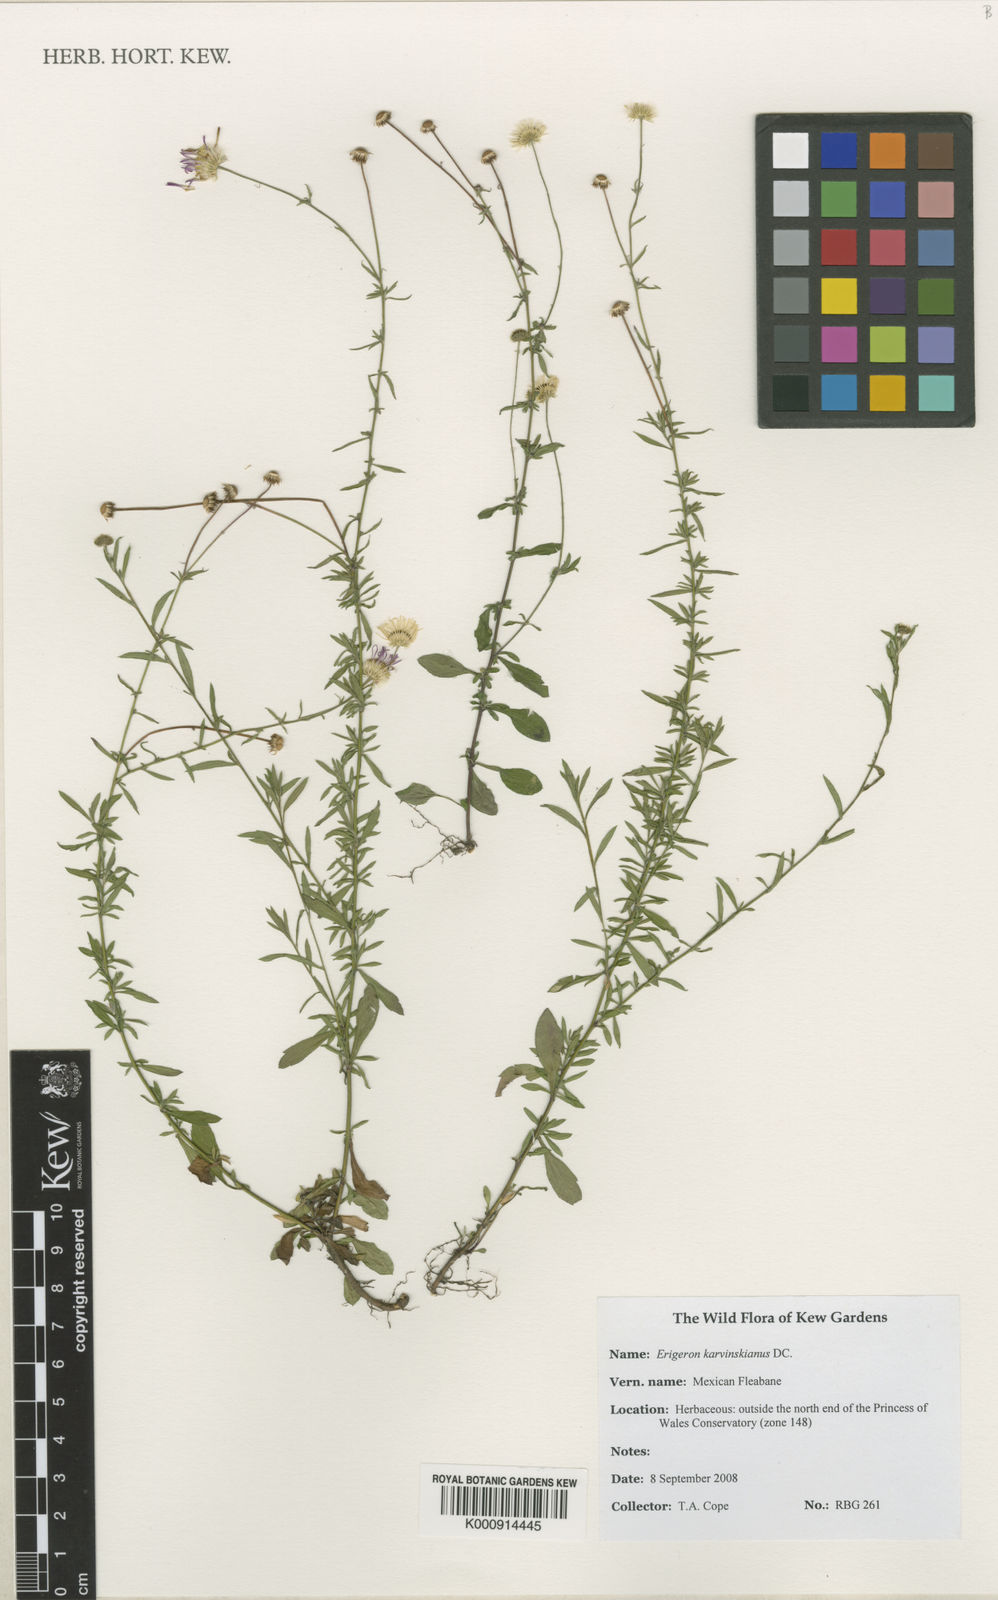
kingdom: Plantae
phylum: Tracheophyta
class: Magnoliopsida
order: Asterales
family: Asteraceae
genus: Erigeron
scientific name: Erigeron karvinskianus
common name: Mexican fleabane
